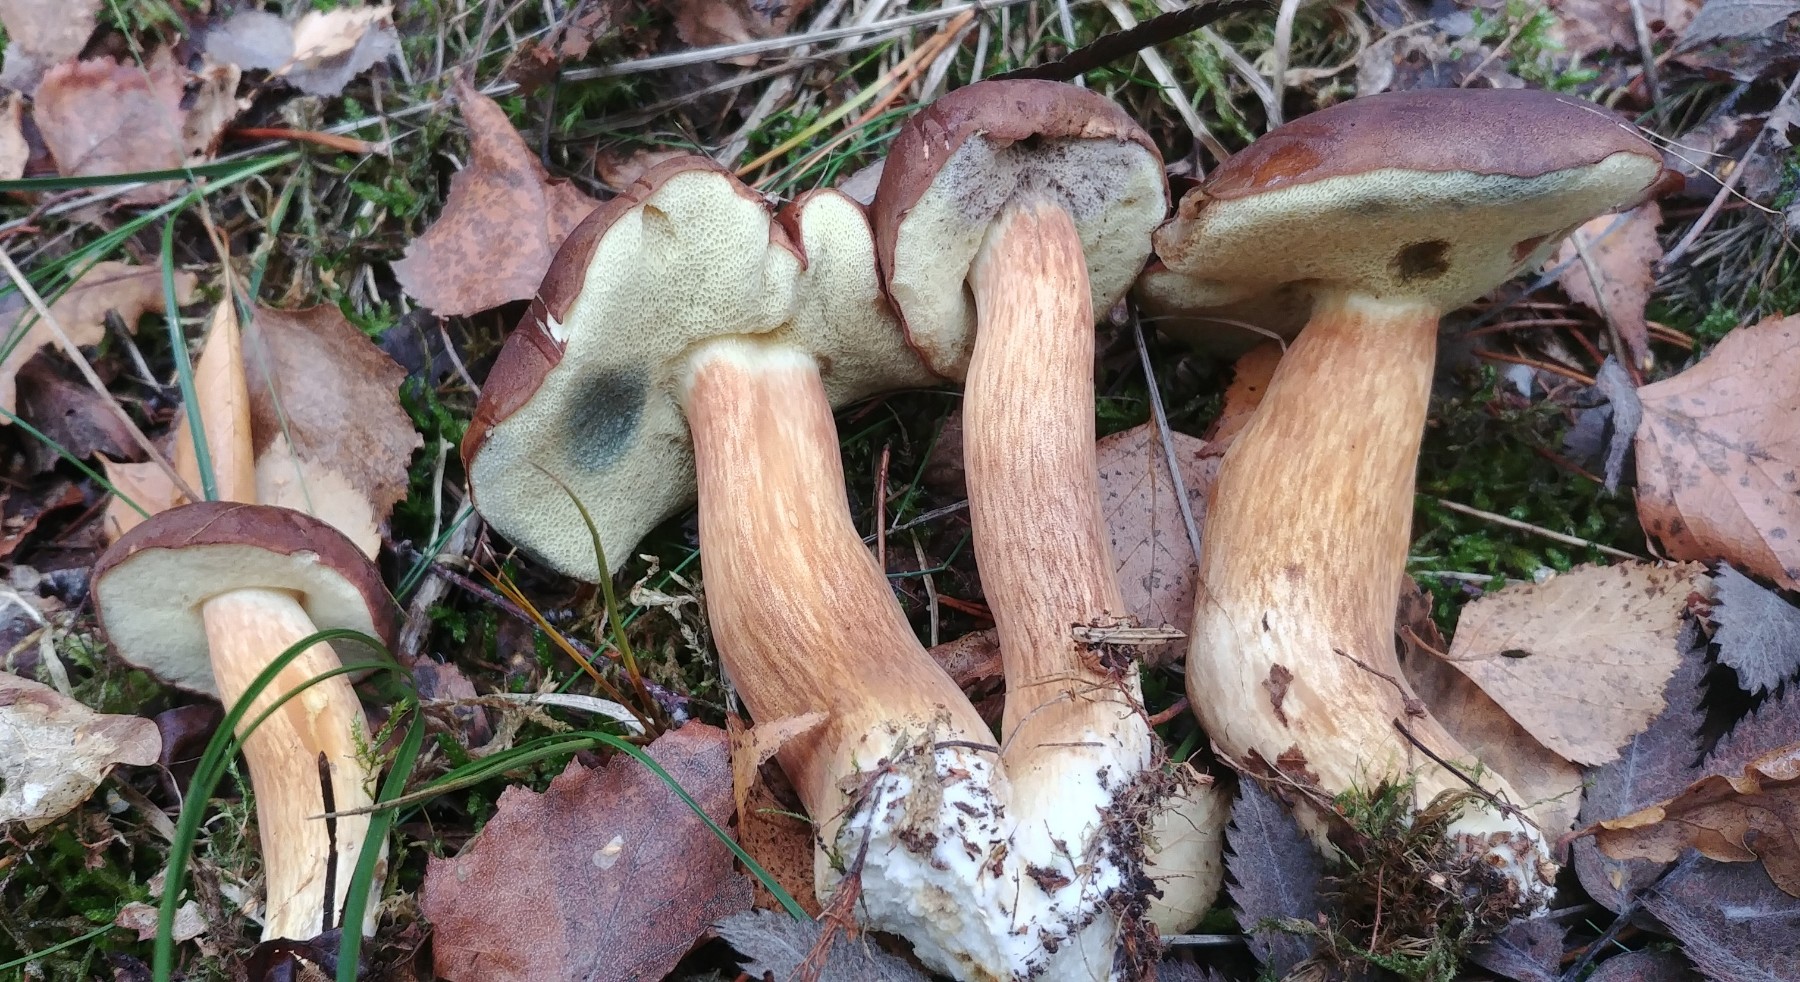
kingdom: Fungi
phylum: Basidiomycota
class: Agaricomycetes
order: Boletales
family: Boletaceae
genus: Imleria
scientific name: Imleria badia
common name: brunstokket rørhat
